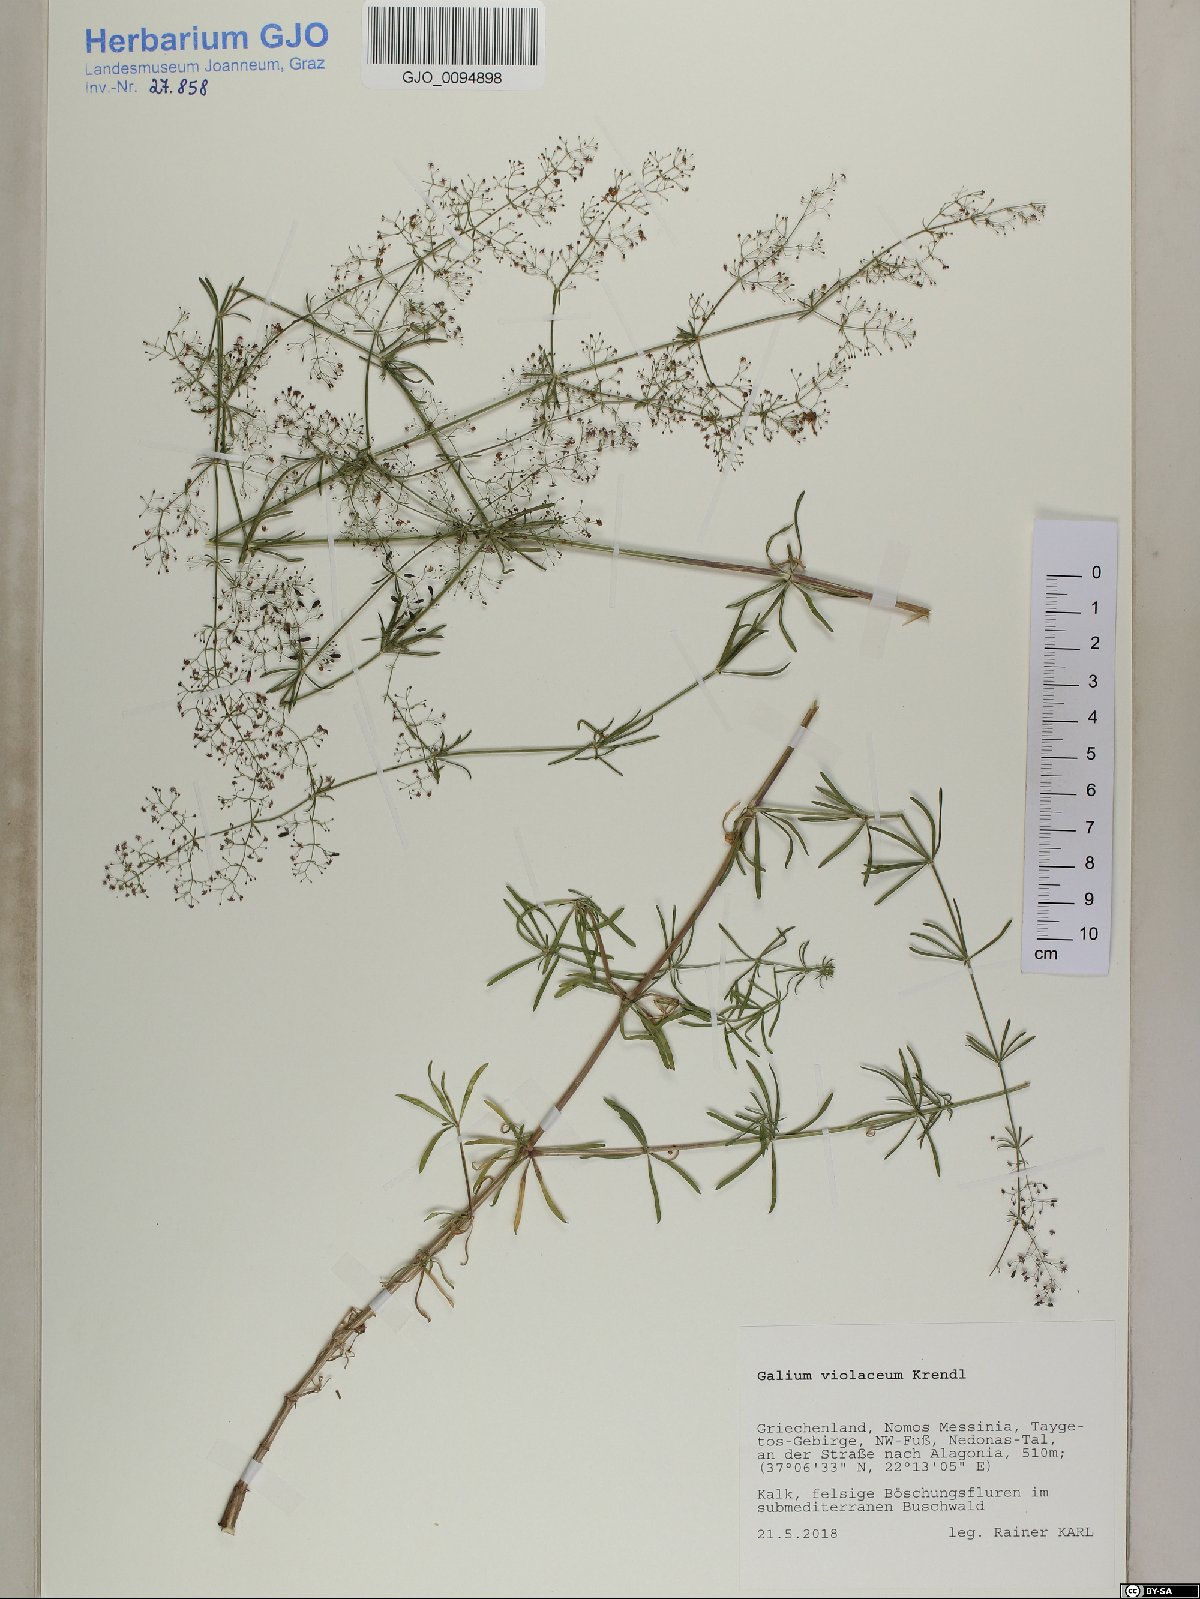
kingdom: Plantae
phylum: Tracheophyta
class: Magnoliopsida
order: Gentianales
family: Rubiaceae
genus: Galium
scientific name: Galium taygeteum
